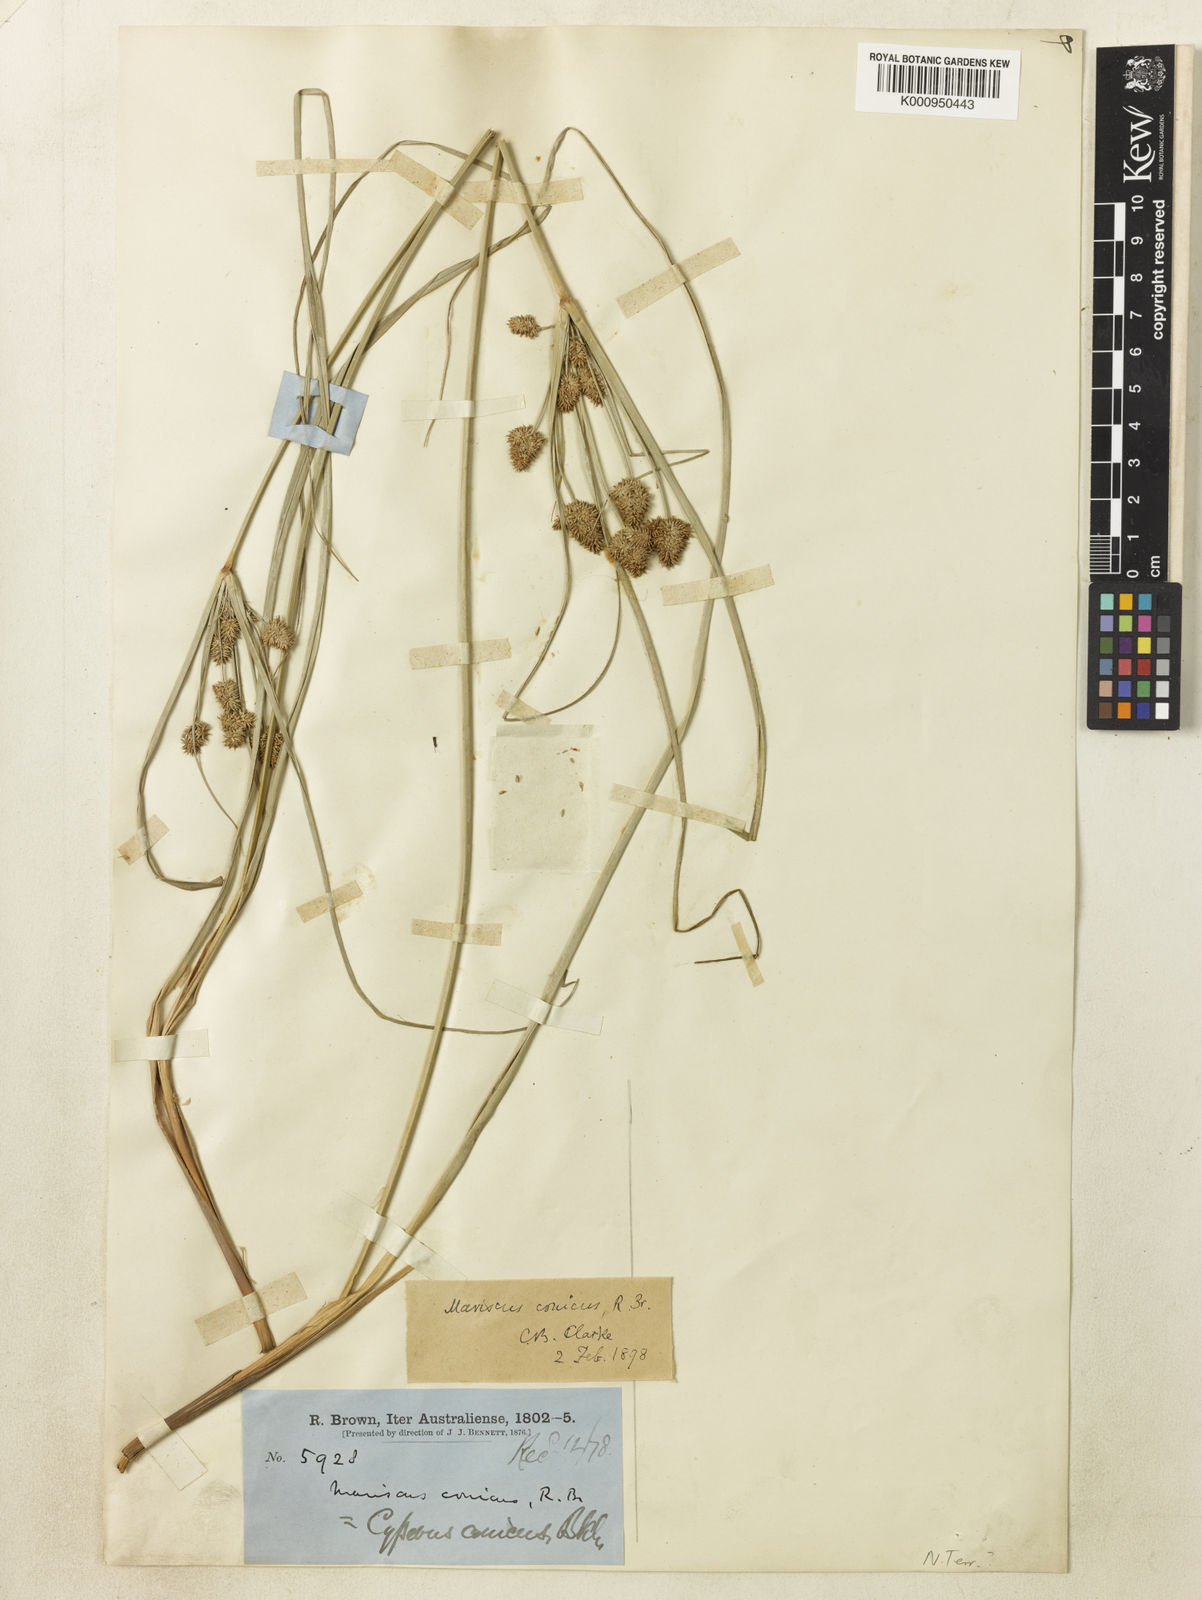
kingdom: Plantae
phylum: Tracheophyta
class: Liliopsida
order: Poales
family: Cyperaceae
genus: Cyperus
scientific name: Cyperus conicus
